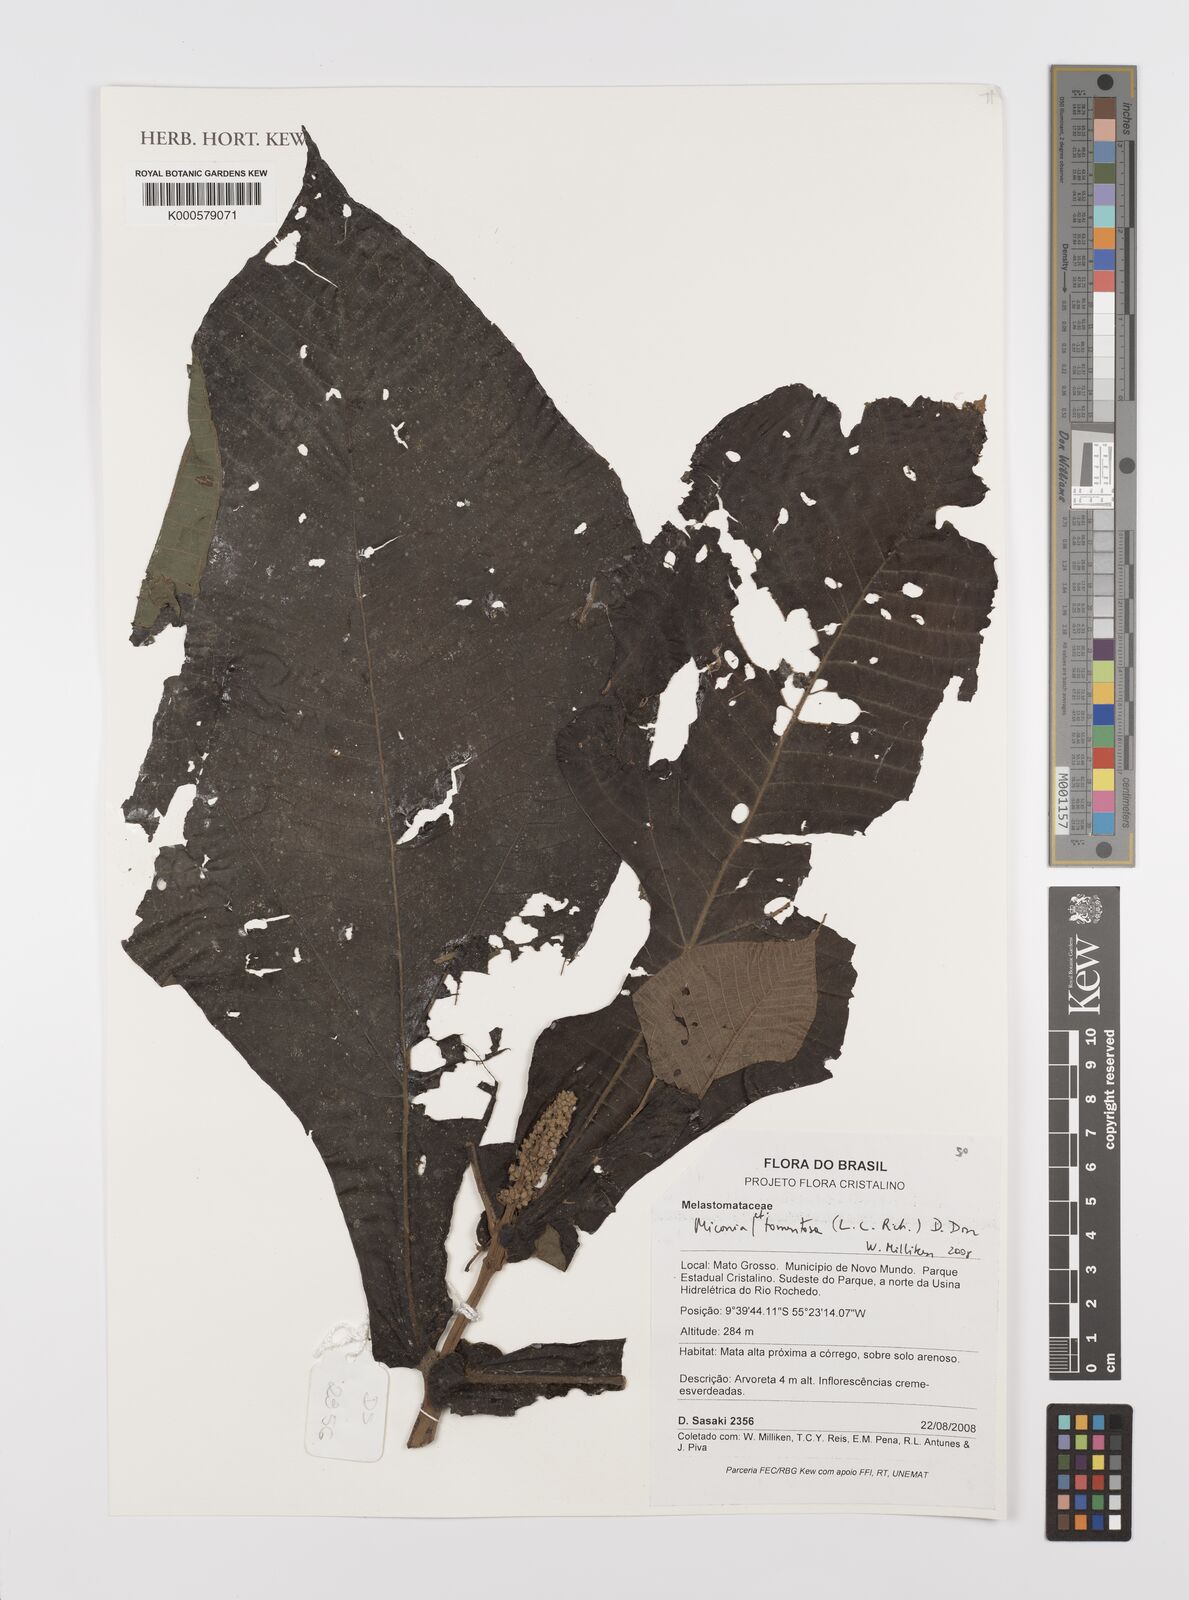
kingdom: Plantae
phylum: Tracheophyta
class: Magnoliopsida
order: Myrtales
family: Melastomataceae
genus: Miconia
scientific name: Miconia
